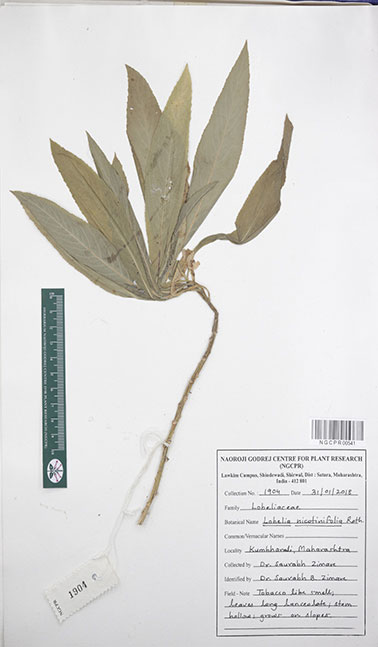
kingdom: Plantae
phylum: Tracheophyta
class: Magnoliopsida
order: Asterales
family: Campanulaceae
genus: Lobelia
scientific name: Lobelia nicotianifolia
